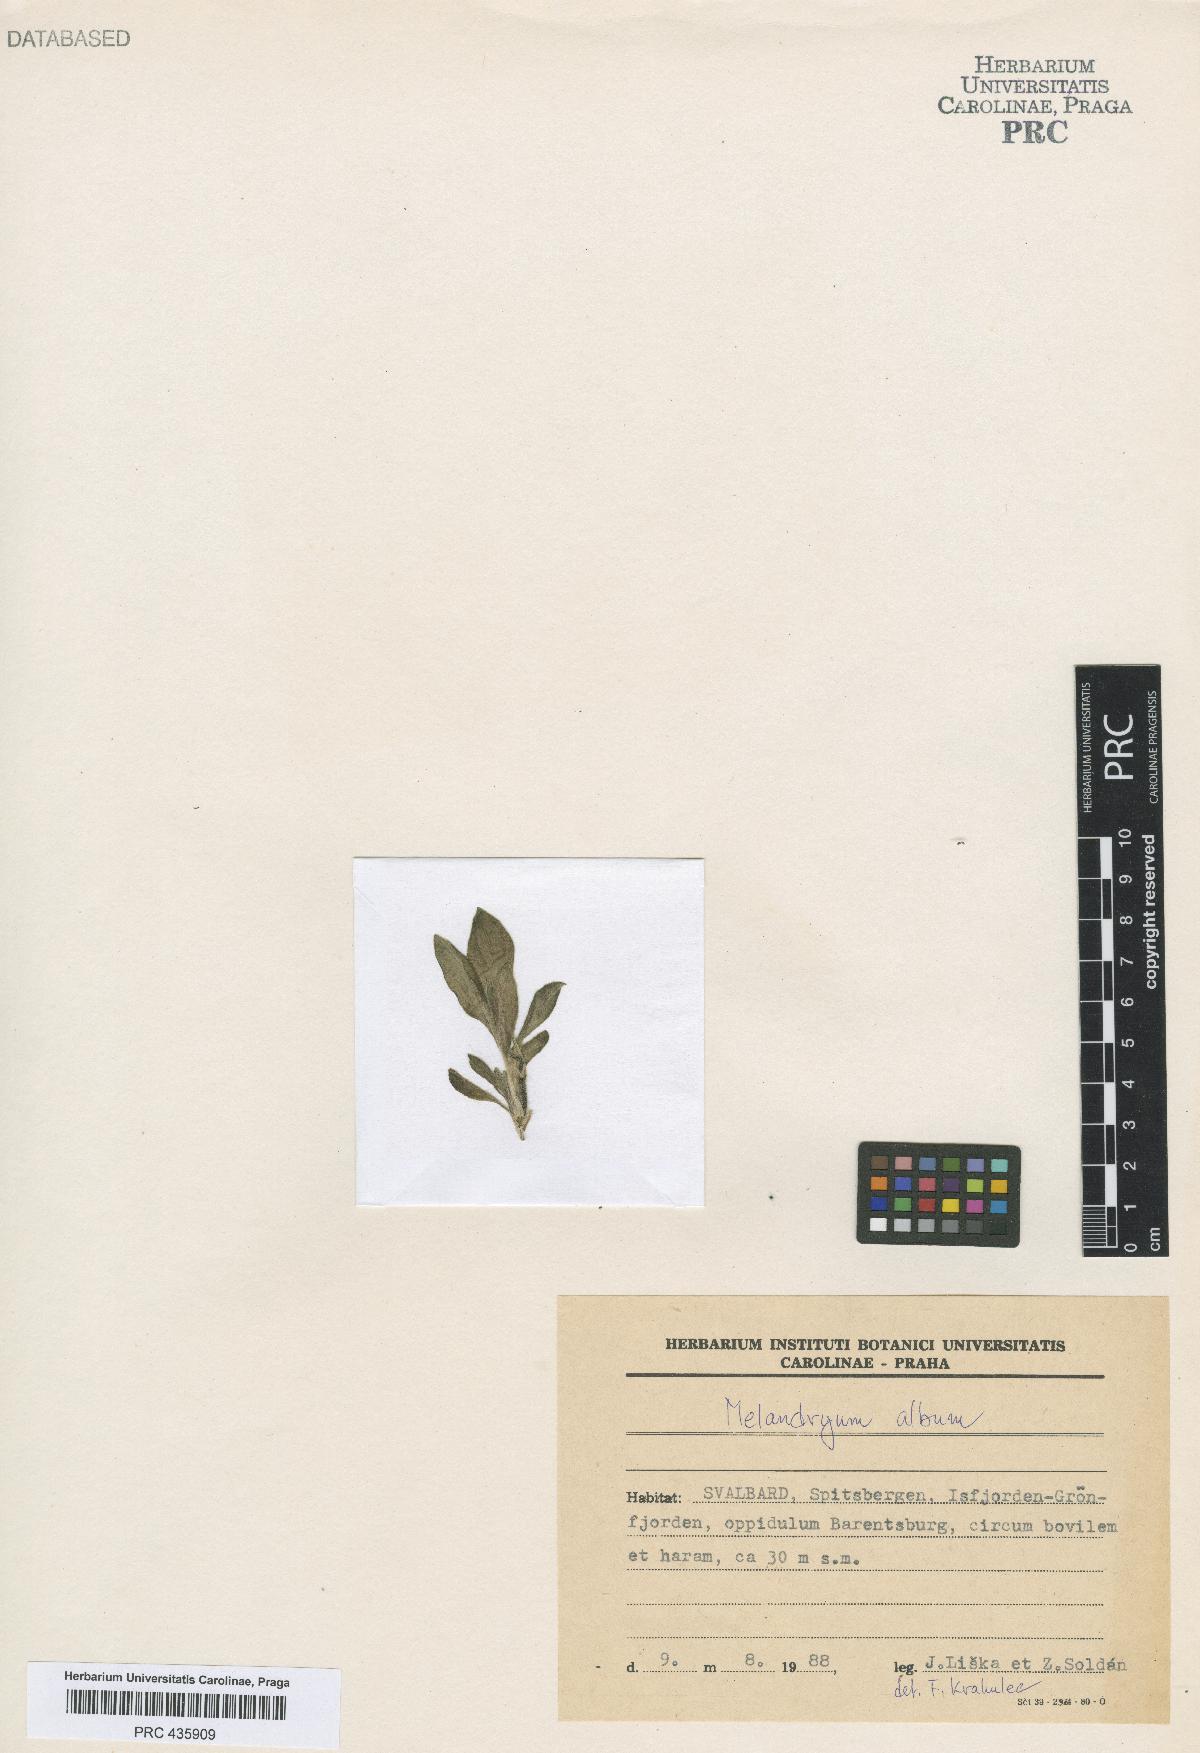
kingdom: Plantae
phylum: Tracheophyta
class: Magnoliopsida
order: Caryophyllales
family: Caryophyllaceae
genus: Silene
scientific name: Silene latifolia
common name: White campion
